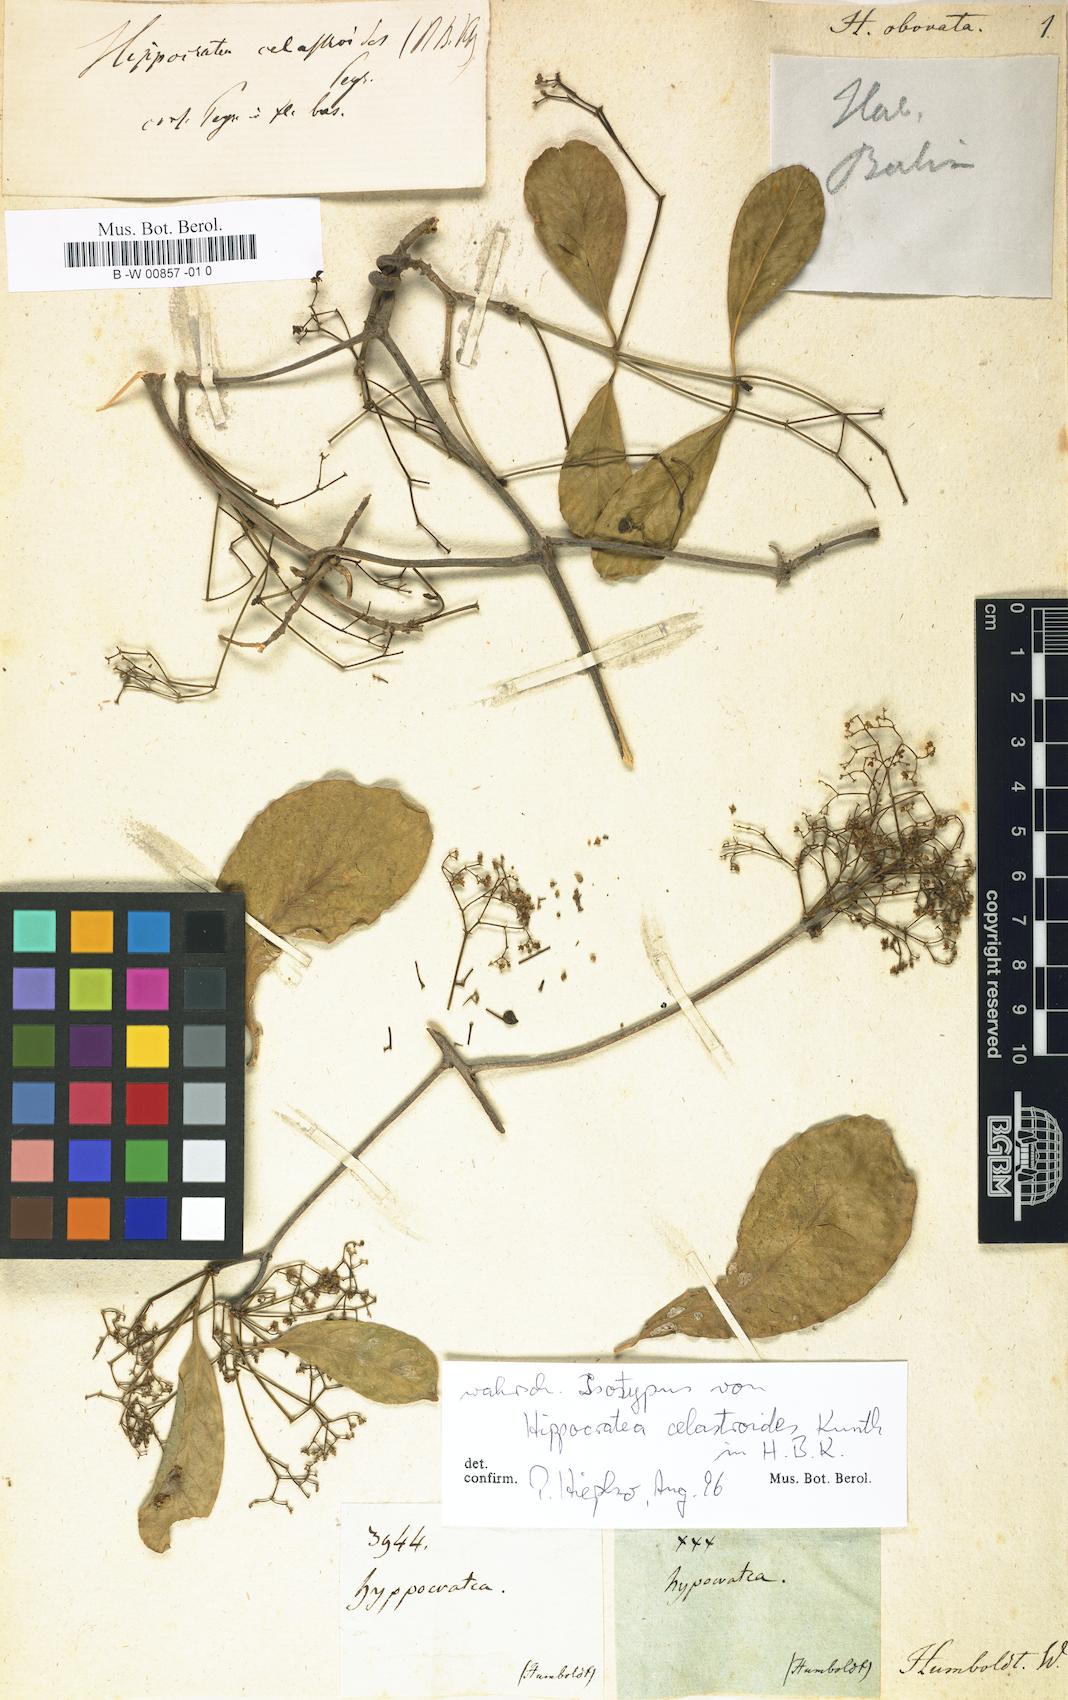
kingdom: Plantae
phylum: Tracheophyta
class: Magnoliopsida
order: Celastrales
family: Celastraceae
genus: Semialarium
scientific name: Semialarium mexicanum
